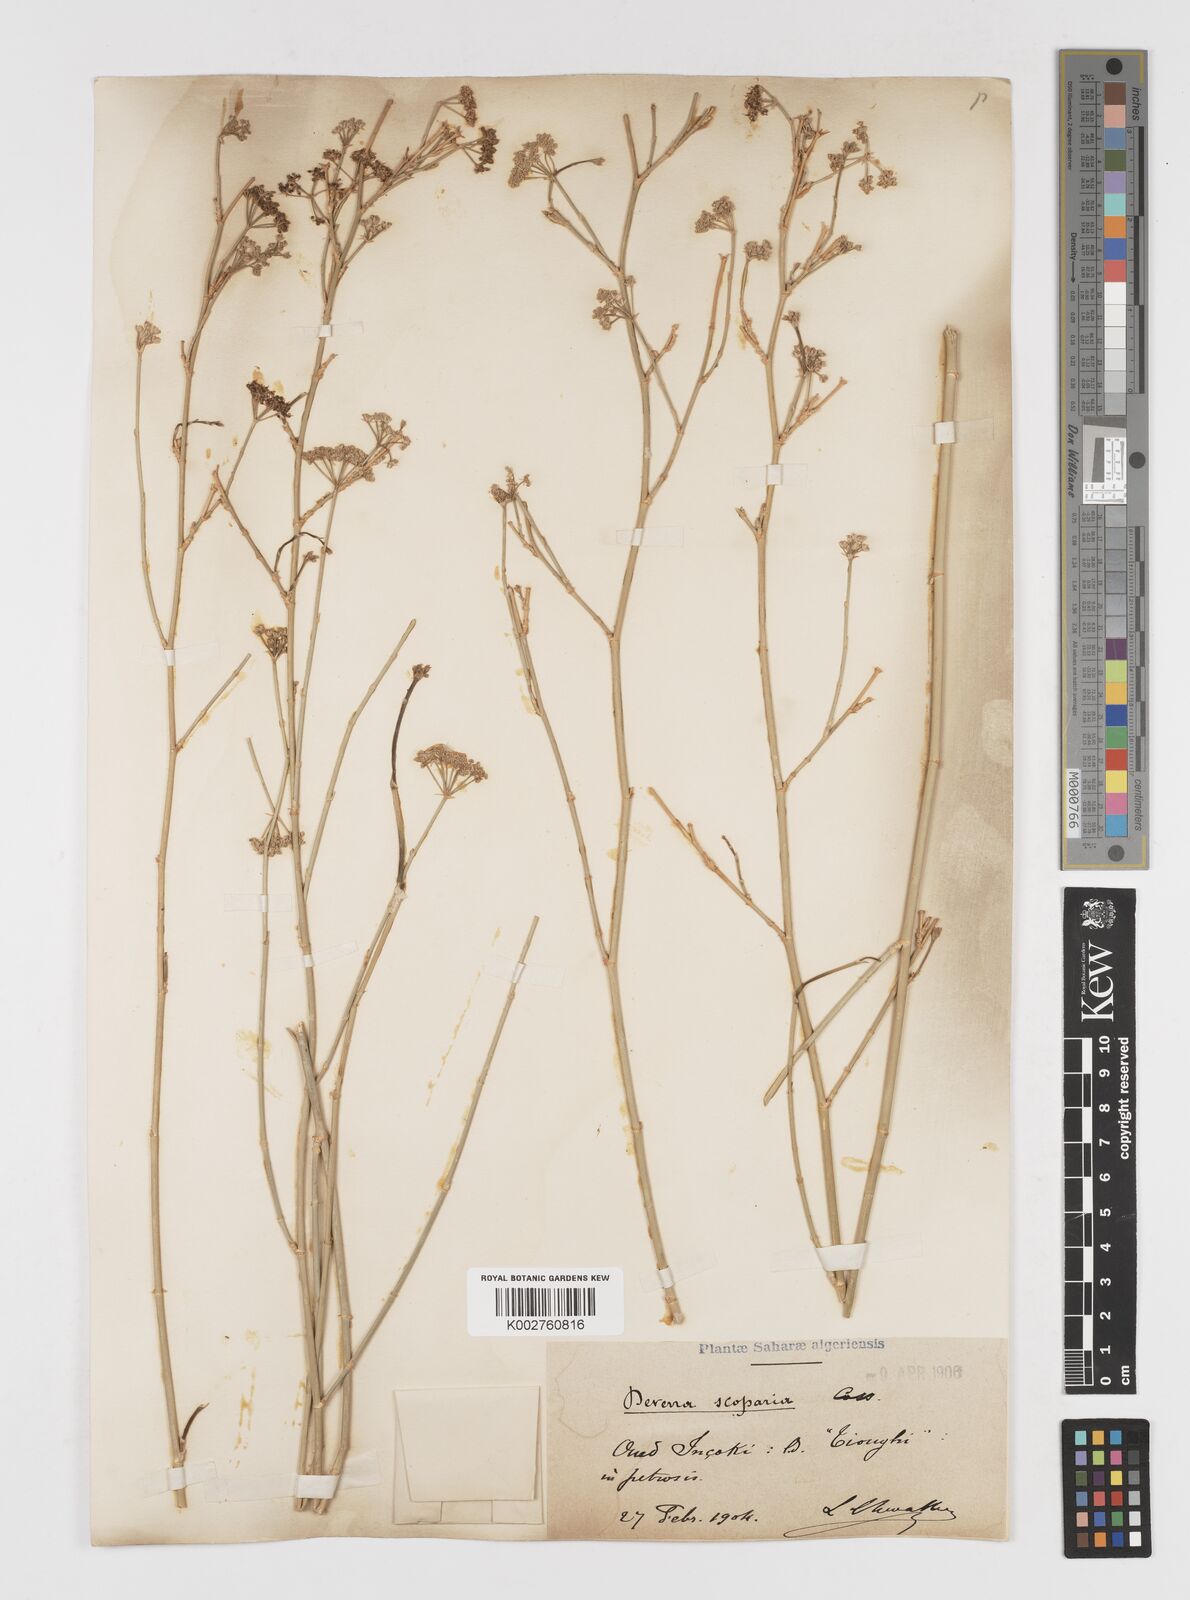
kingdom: Plantae
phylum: Tracheophyta
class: Magnoliopsida
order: Apiales
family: Apiaceae
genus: Deverra
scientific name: Deverra scoparia
